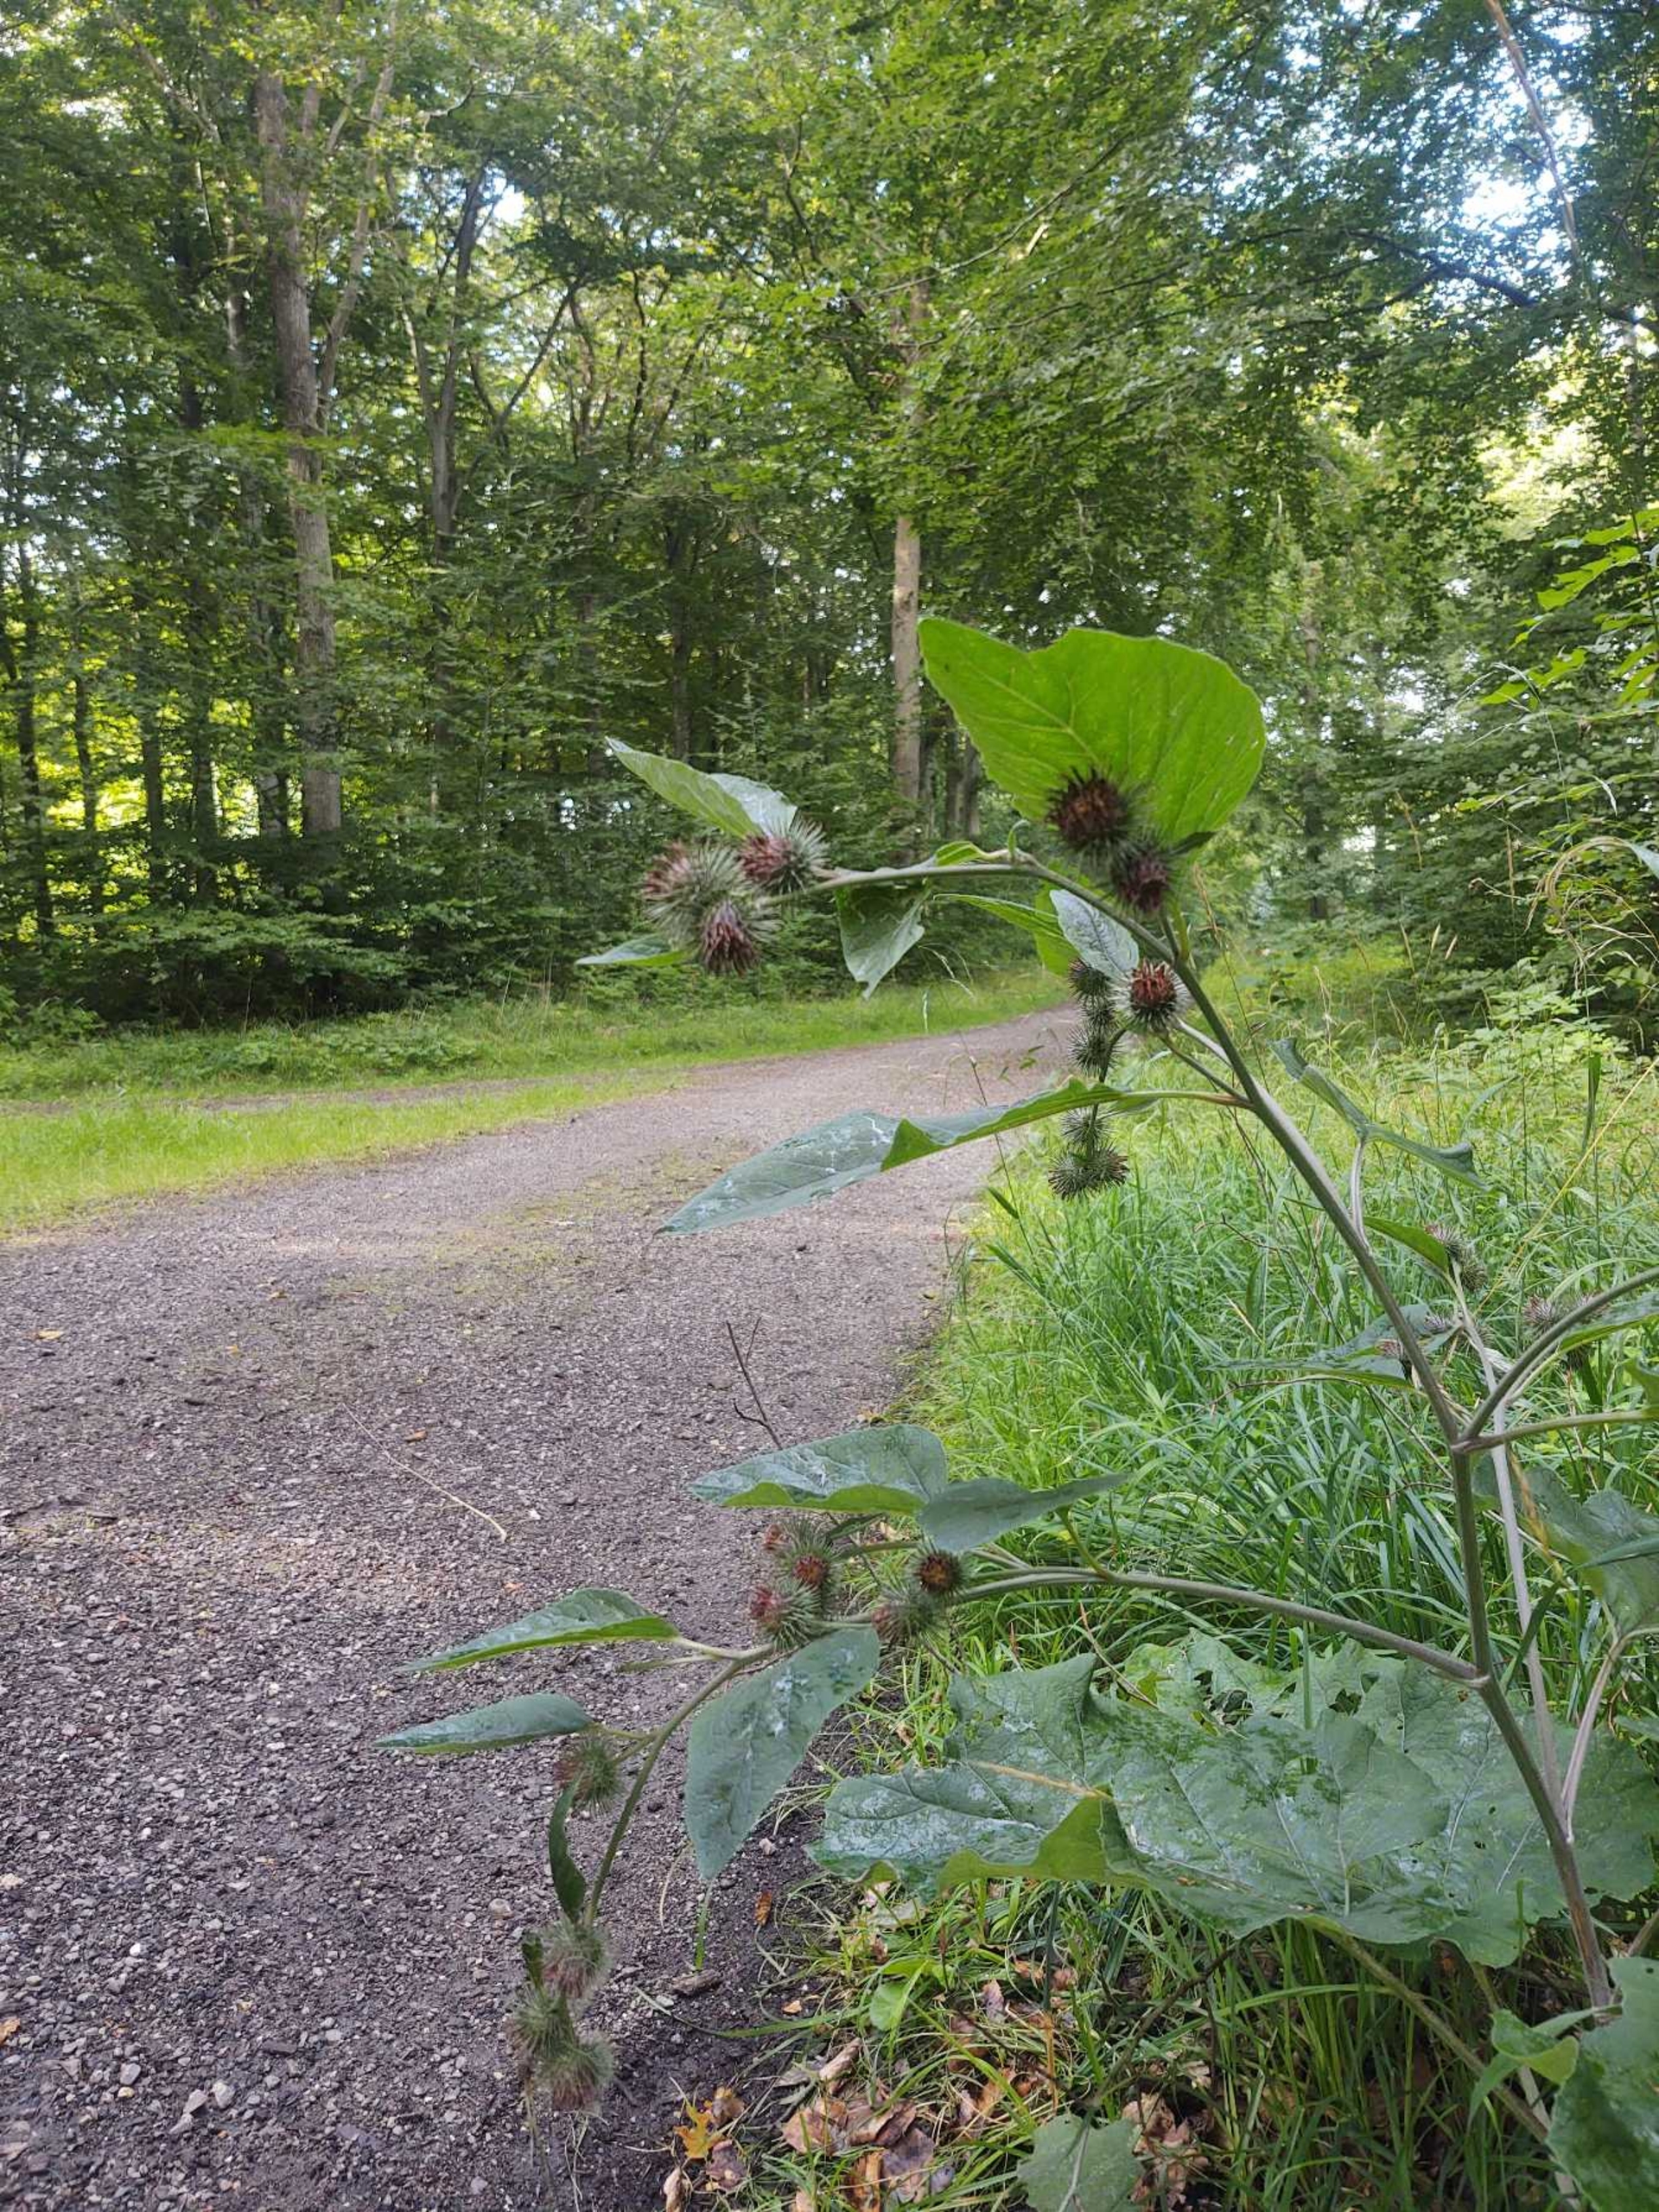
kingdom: Plantae
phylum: Tracheophyta
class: Magnoliopsida
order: Asterales
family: Asteraceae
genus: Arctium
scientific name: Arctium nemorosum
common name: Skov-burre
